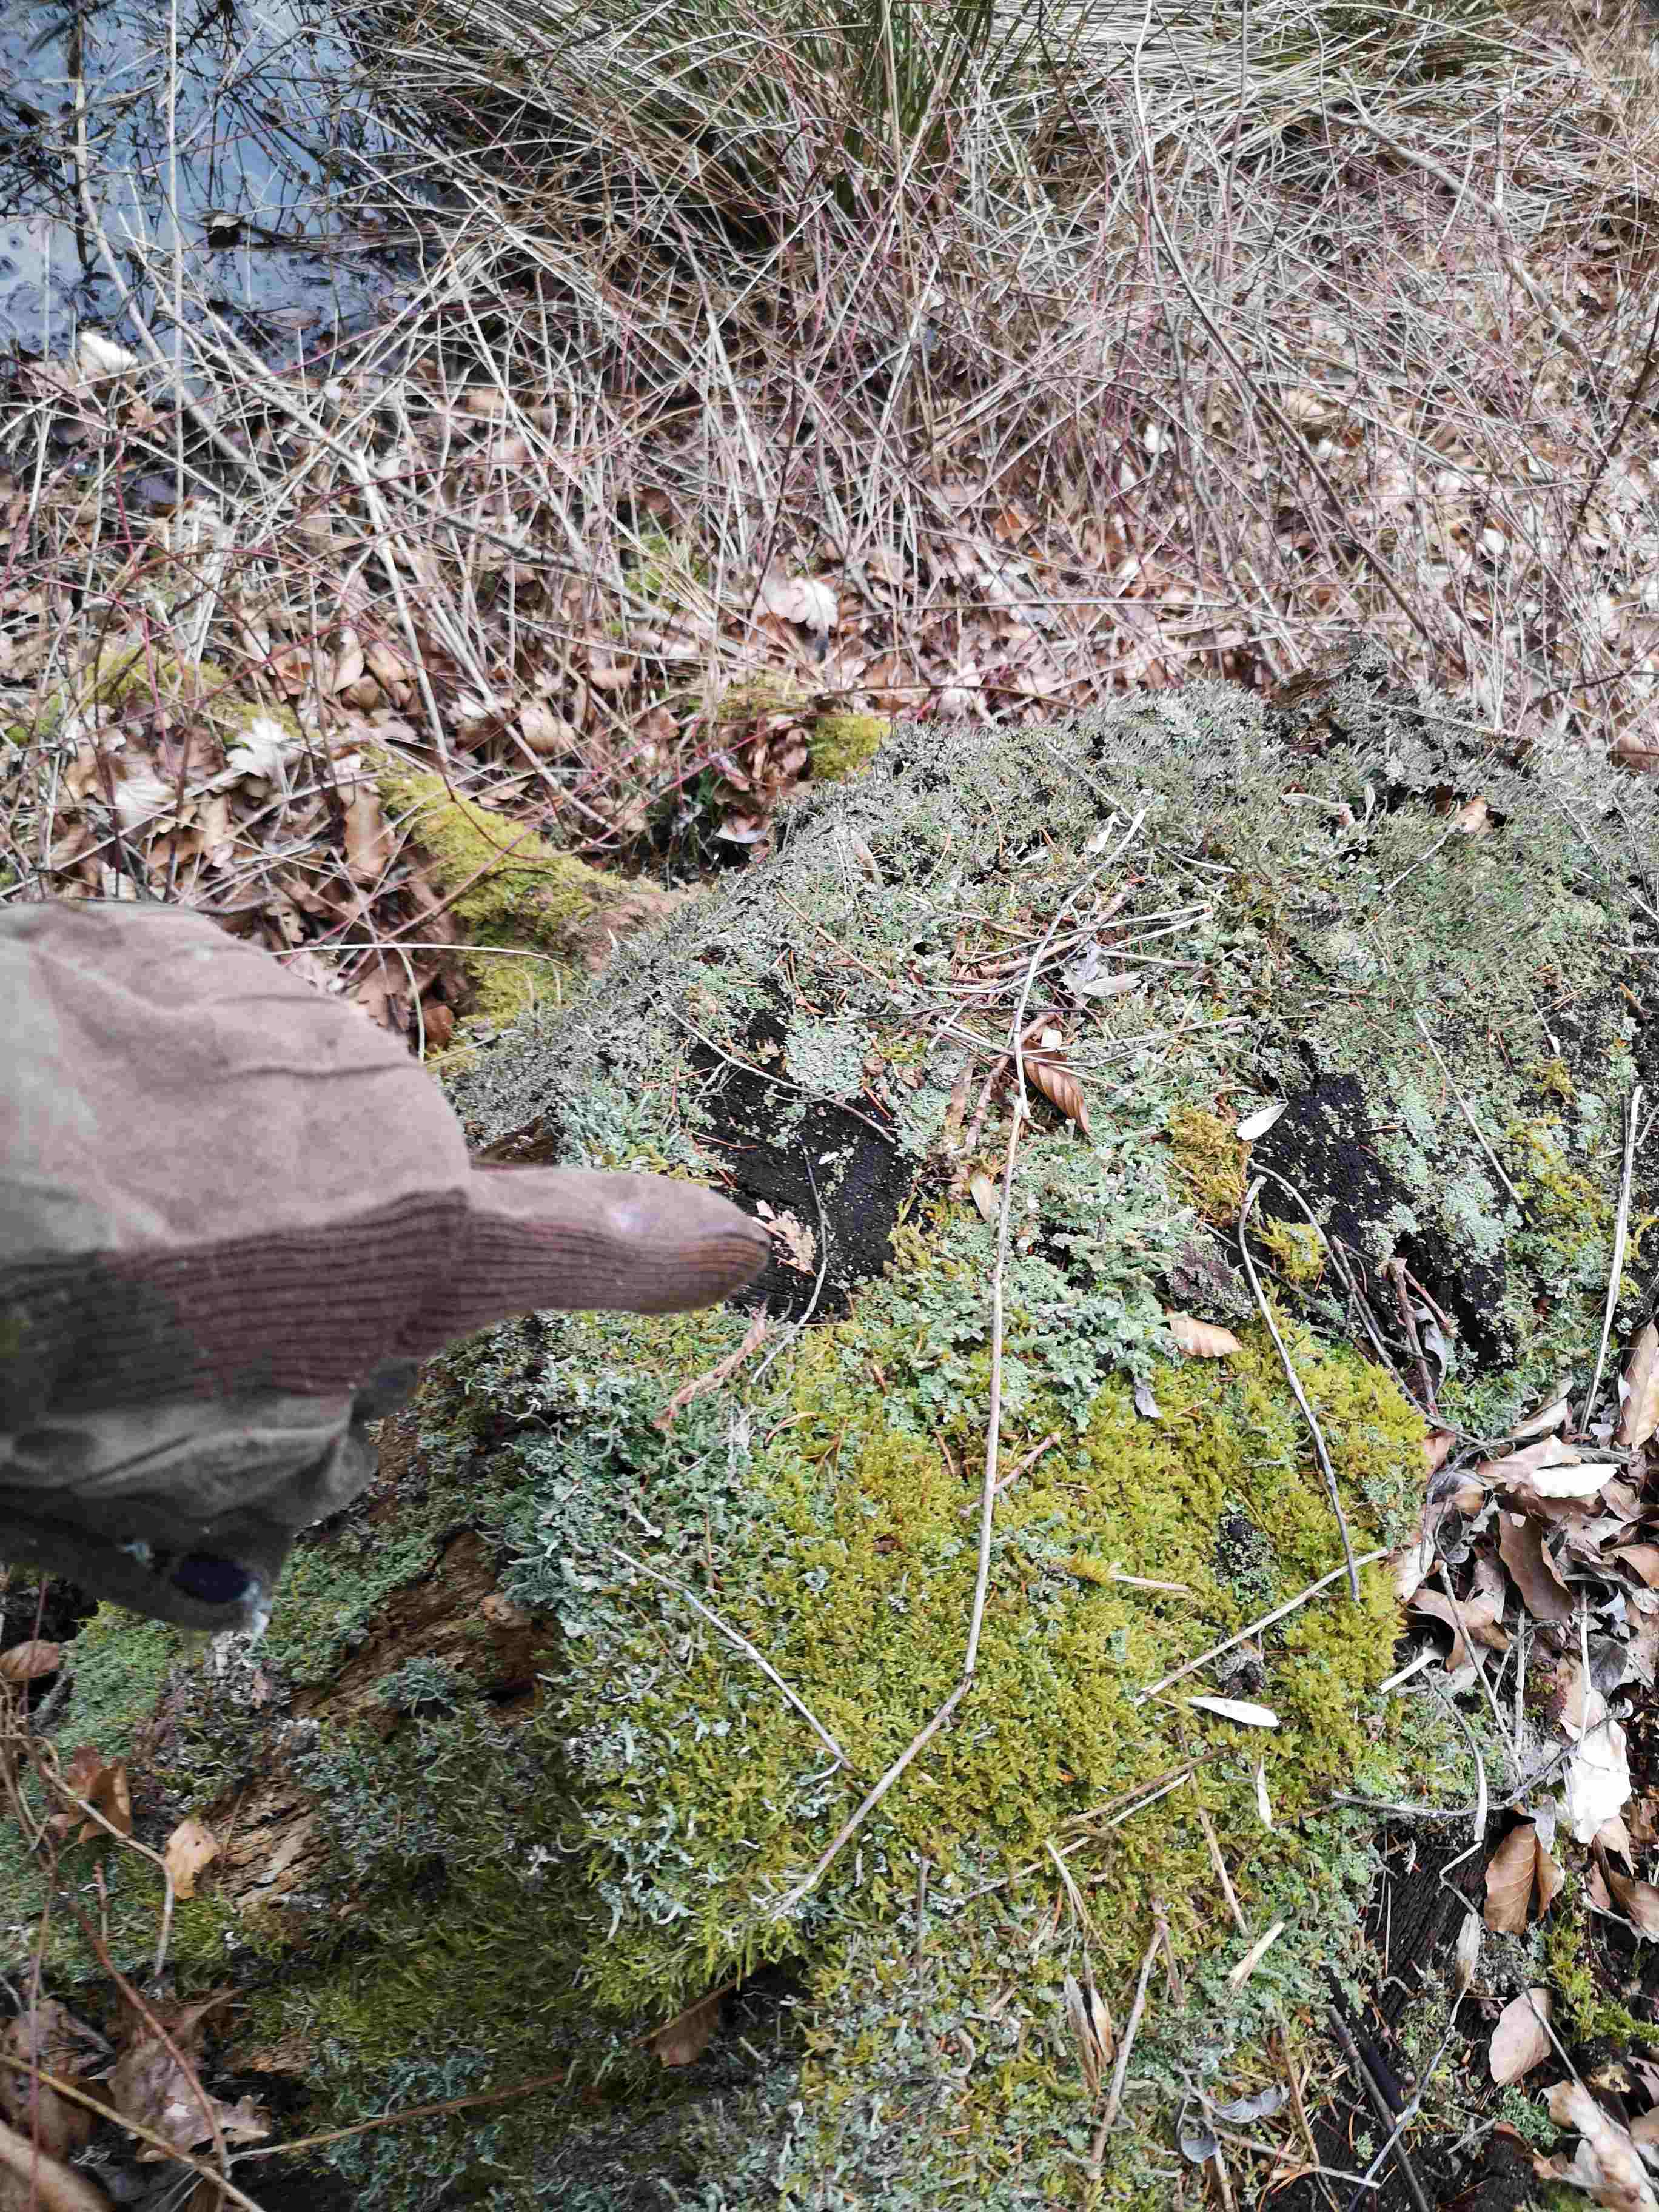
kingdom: Fungi
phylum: Ascomycota
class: Lecanoromycetes
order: Lecanorales
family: Cladoniaceae
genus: Cladonia
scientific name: Cladonia polydactyla
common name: vifte-bægerlav
